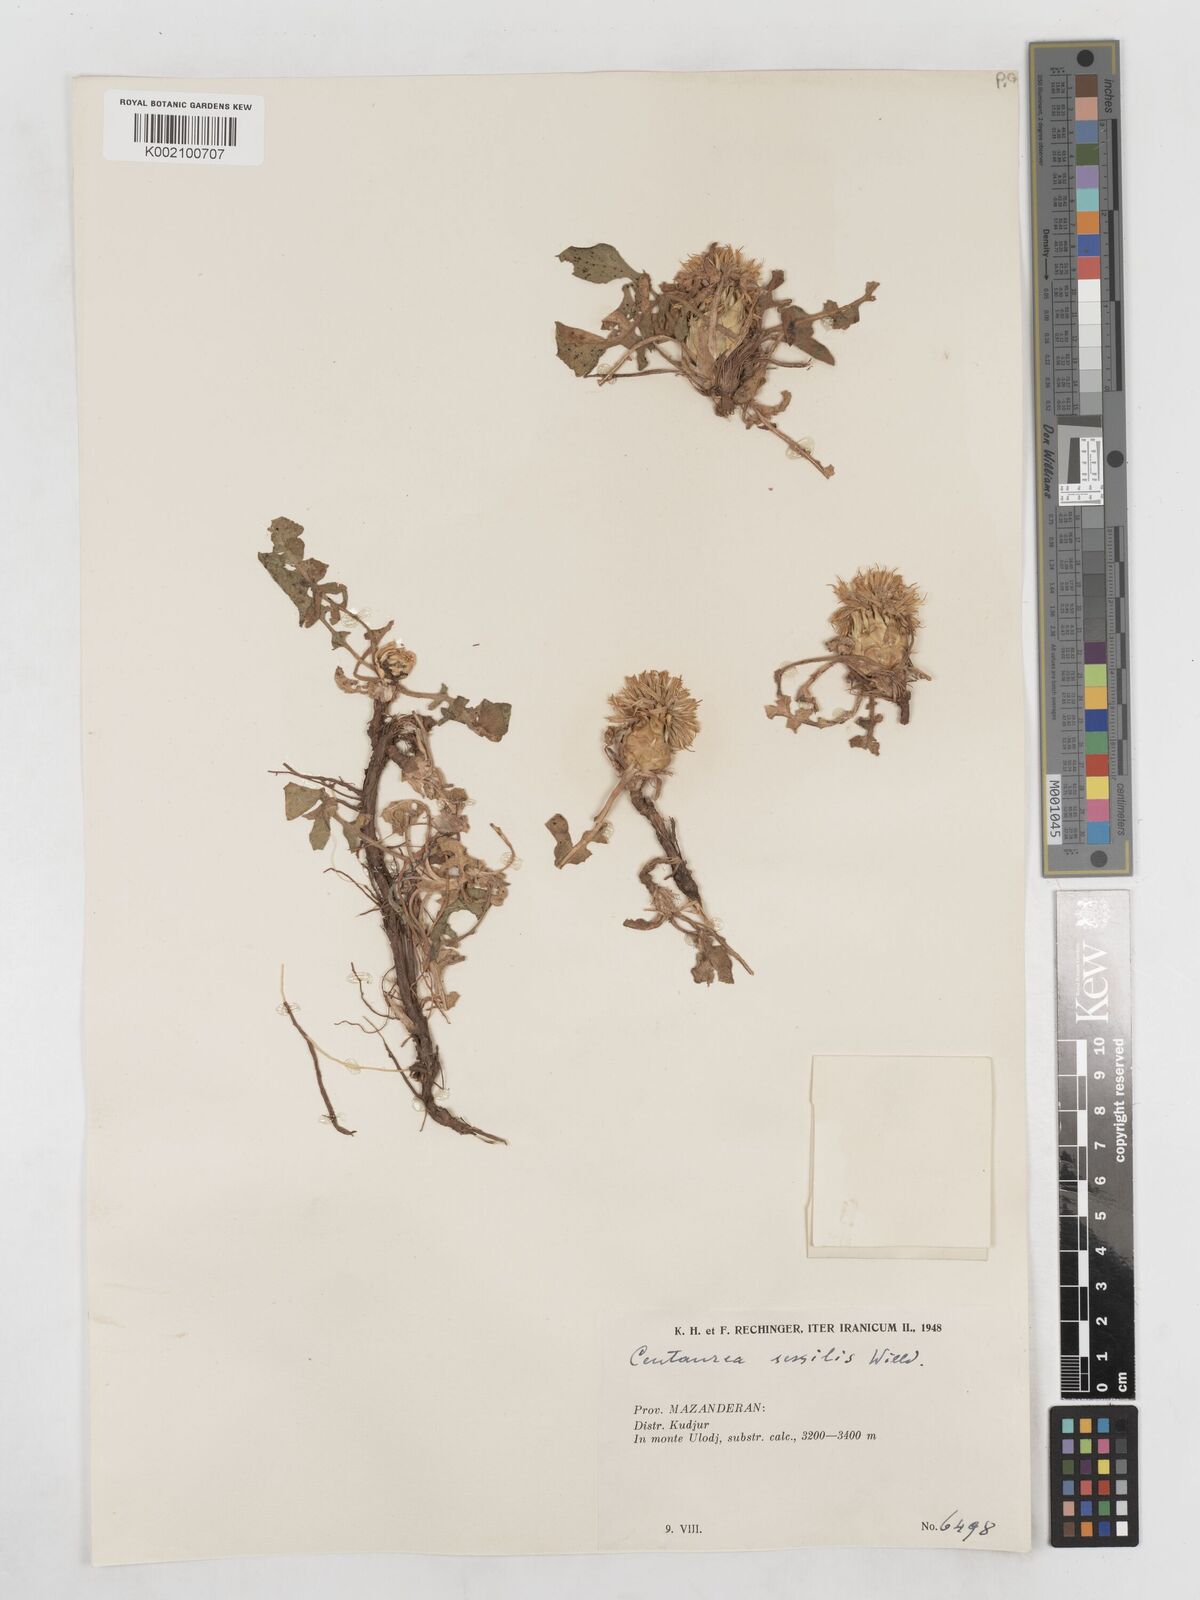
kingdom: Plantae
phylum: Tracheophyta
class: Magnoliopsida
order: Asterales
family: Asteraceae
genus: Centaurea
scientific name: Centaurea rhizantha
